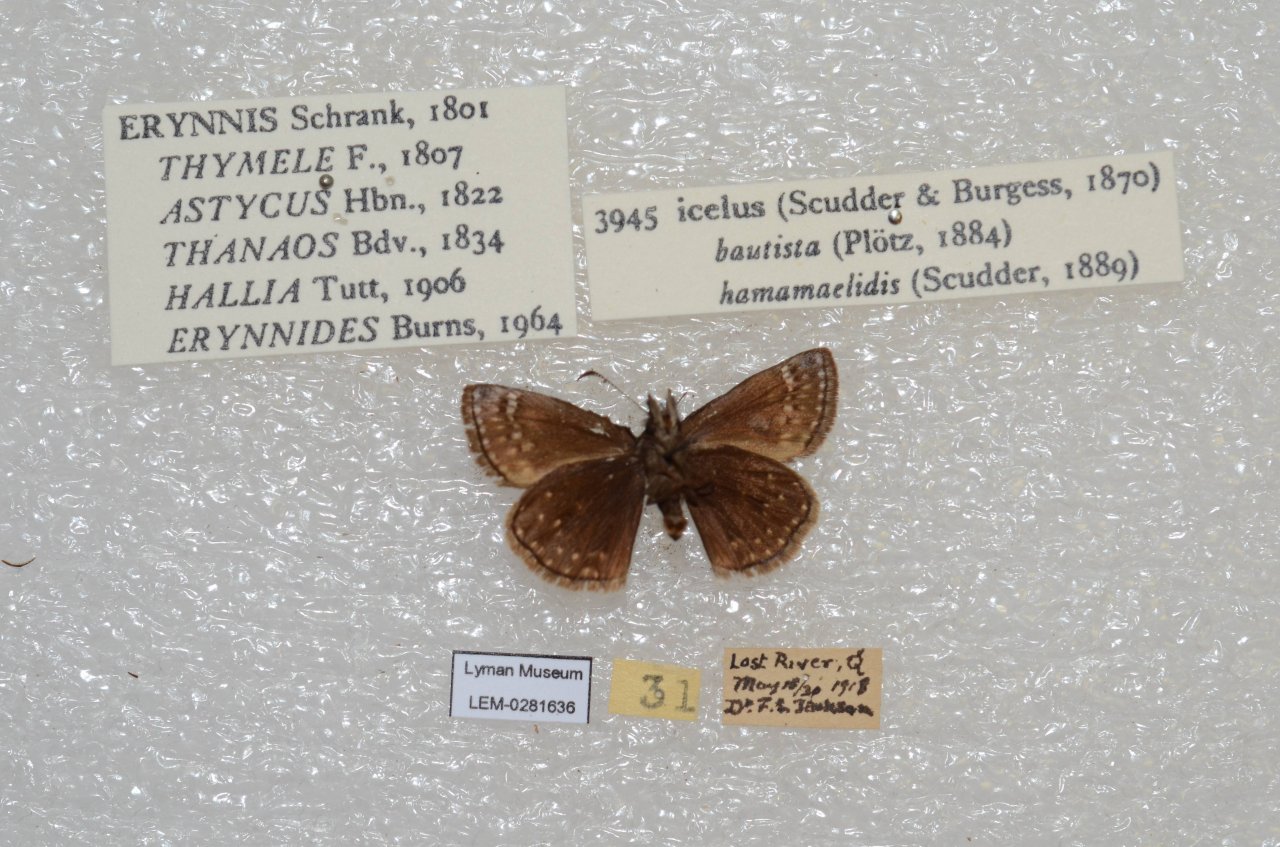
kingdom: Animalia
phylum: Arthropoda
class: Insecta
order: Lepidoptera
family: Hesperiidae
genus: Erynnis
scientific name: Erynnis icelus
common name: Dreamy Duskywing
